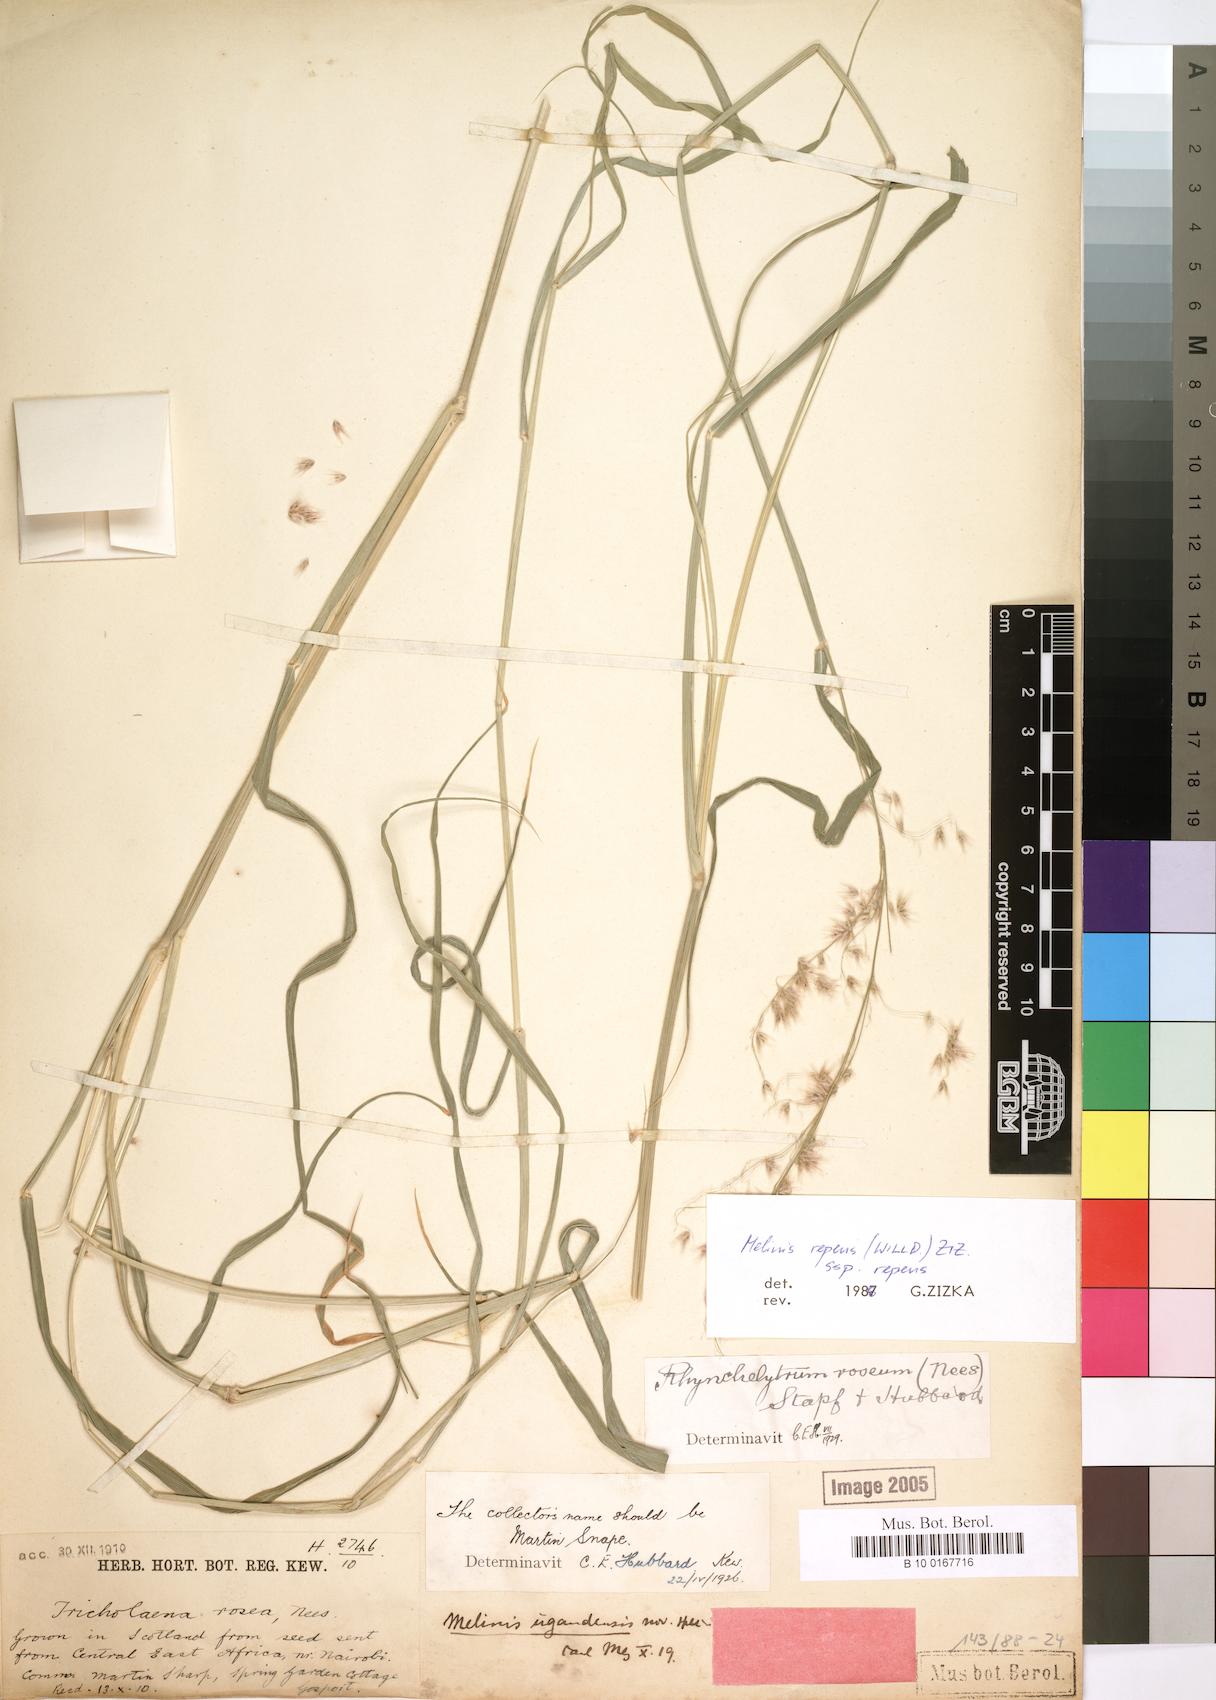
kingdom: Plantae
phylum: Tracheophyta
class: Liliopsida
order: Poales
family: Poaceae
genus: Melinis
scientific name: Melinis repens
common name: Rose natal grass
